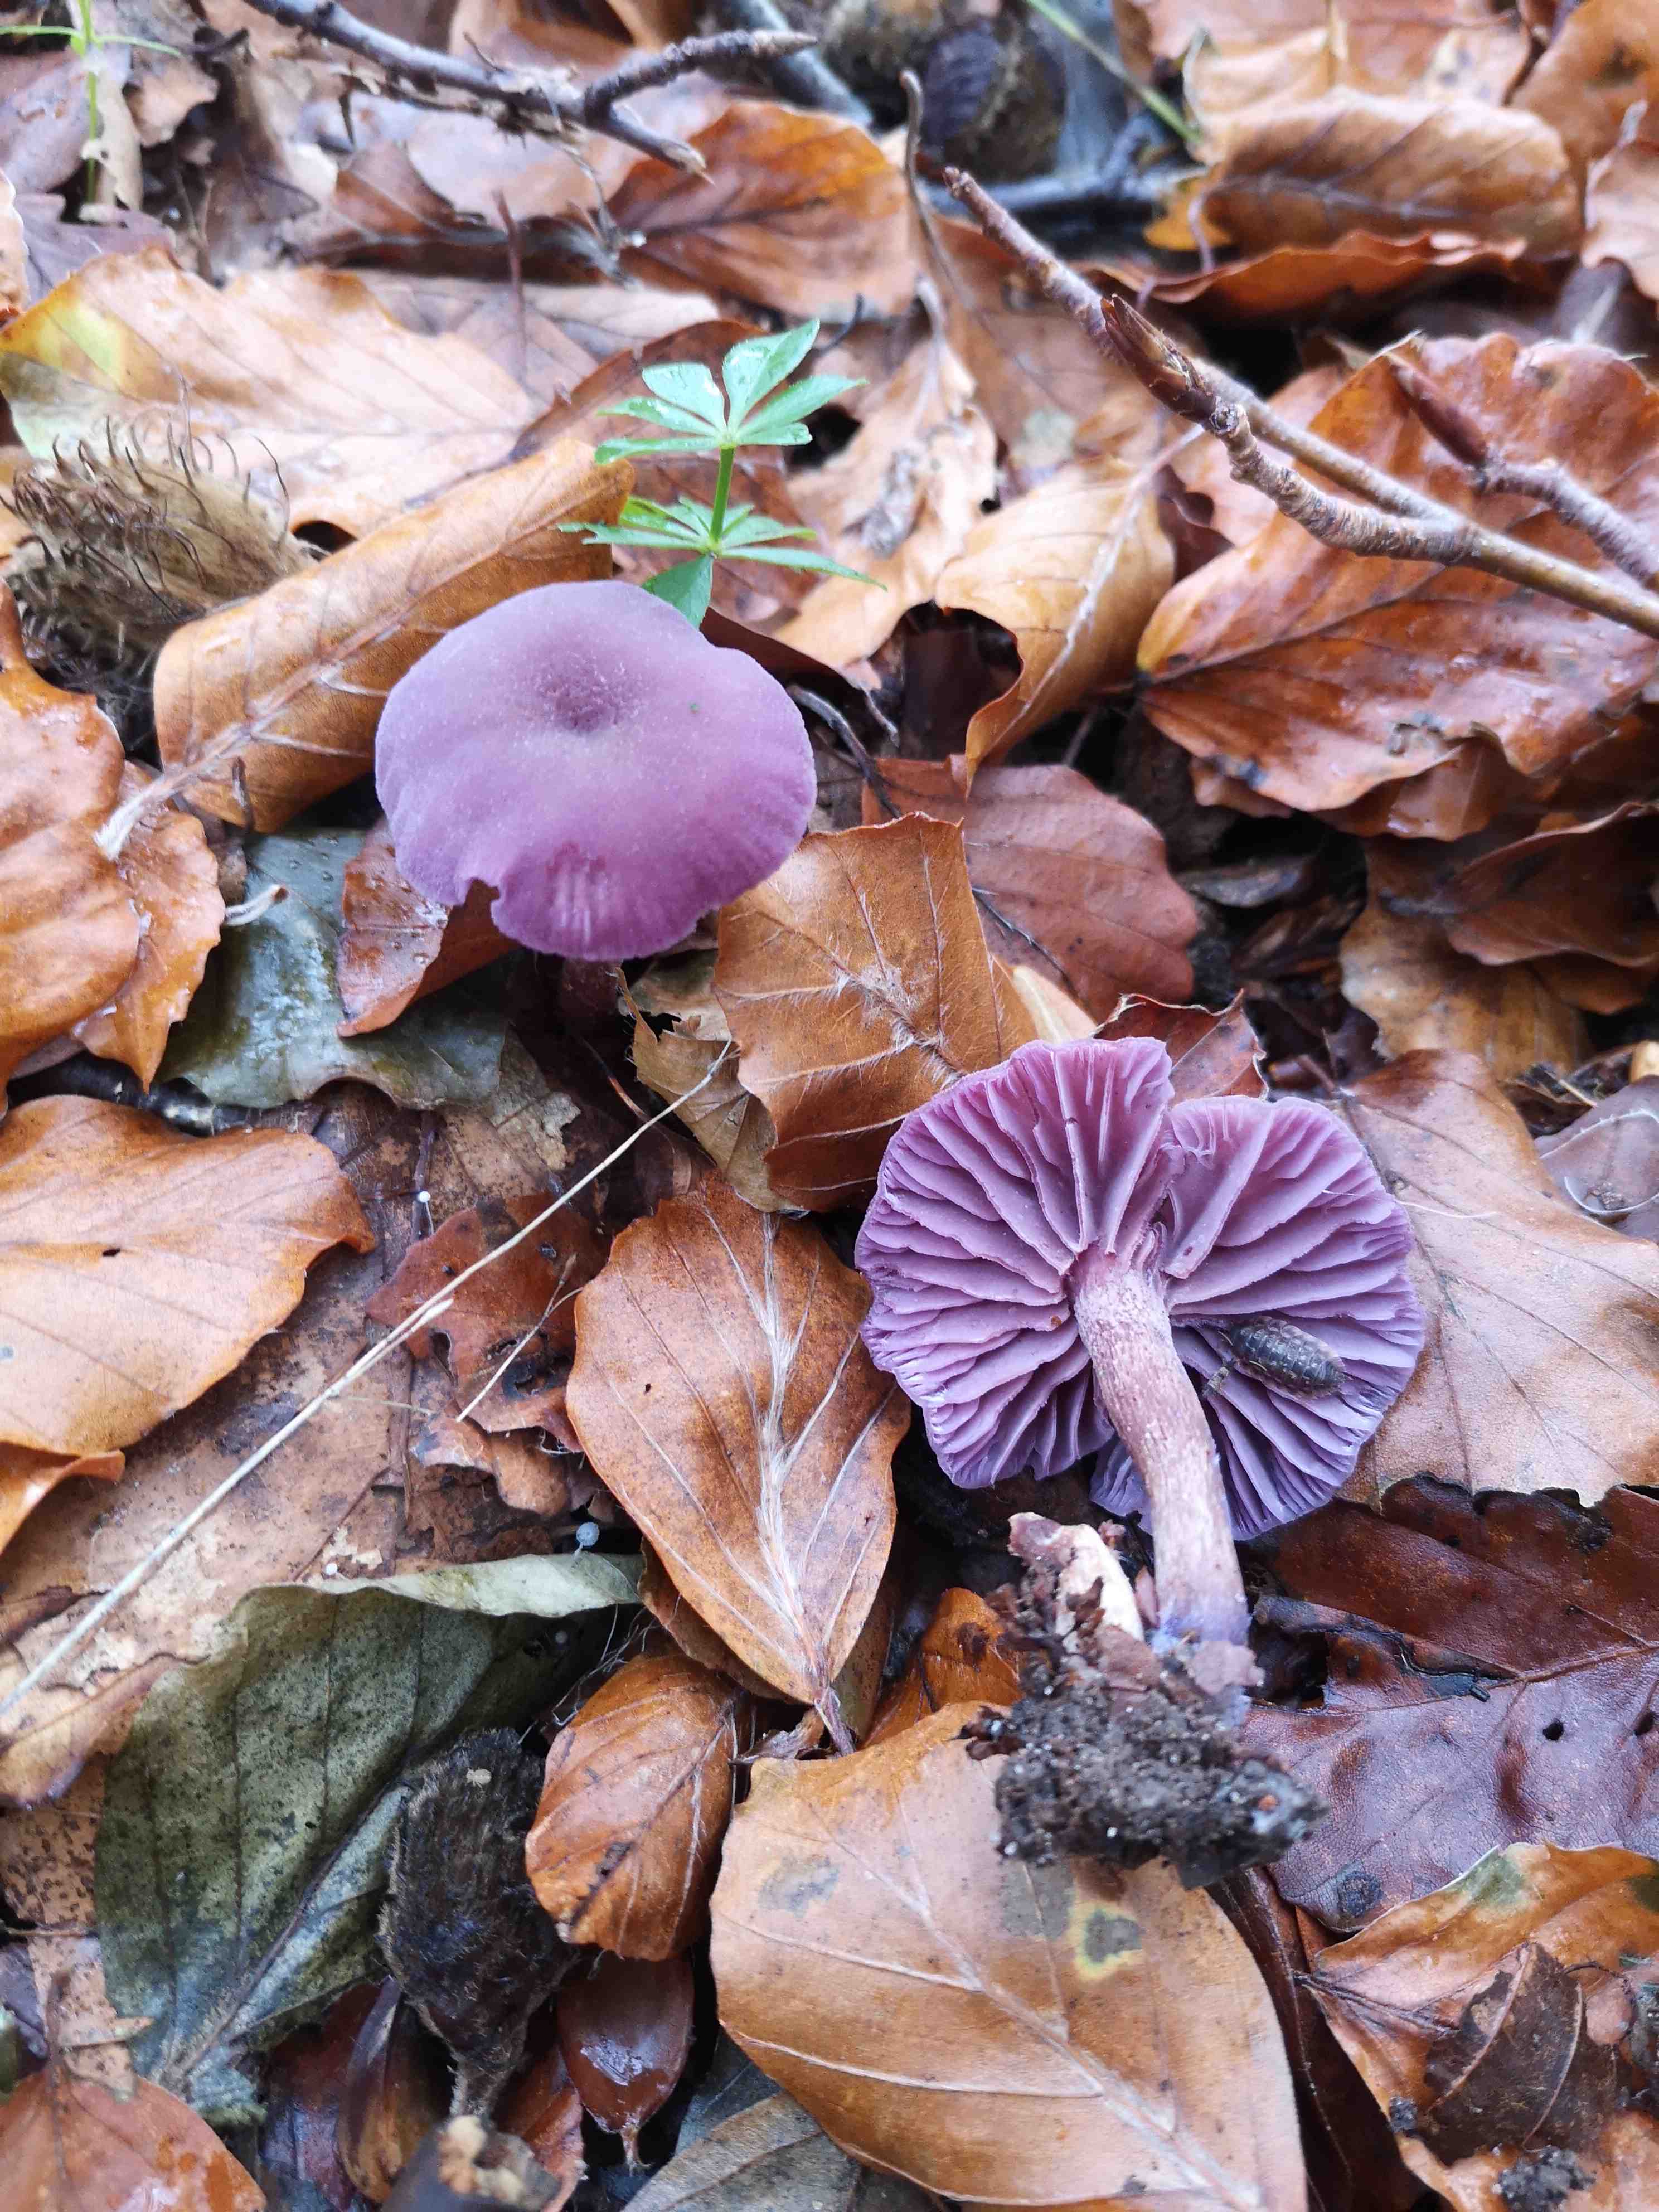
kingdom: Fungi
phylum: Basidiomycota
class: Agaricomycetes
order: Agaricales
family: Hydnangiaceae
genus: Laccaria
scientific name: Laccaria amethystina
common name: violet ametysthat
